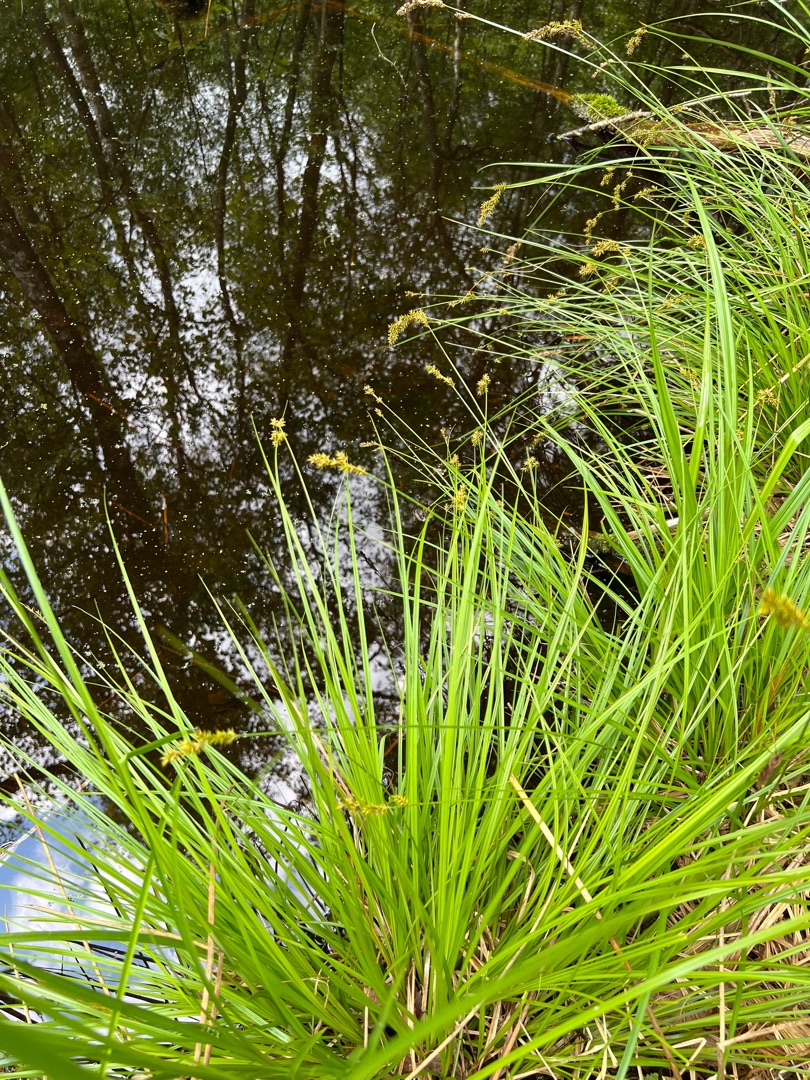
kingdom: Plantae
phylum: Tracheophyta
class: Liliopsida
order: Poales
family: Cyperaceae
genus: Carex
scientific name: Carex elongata
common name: Forlænget star
